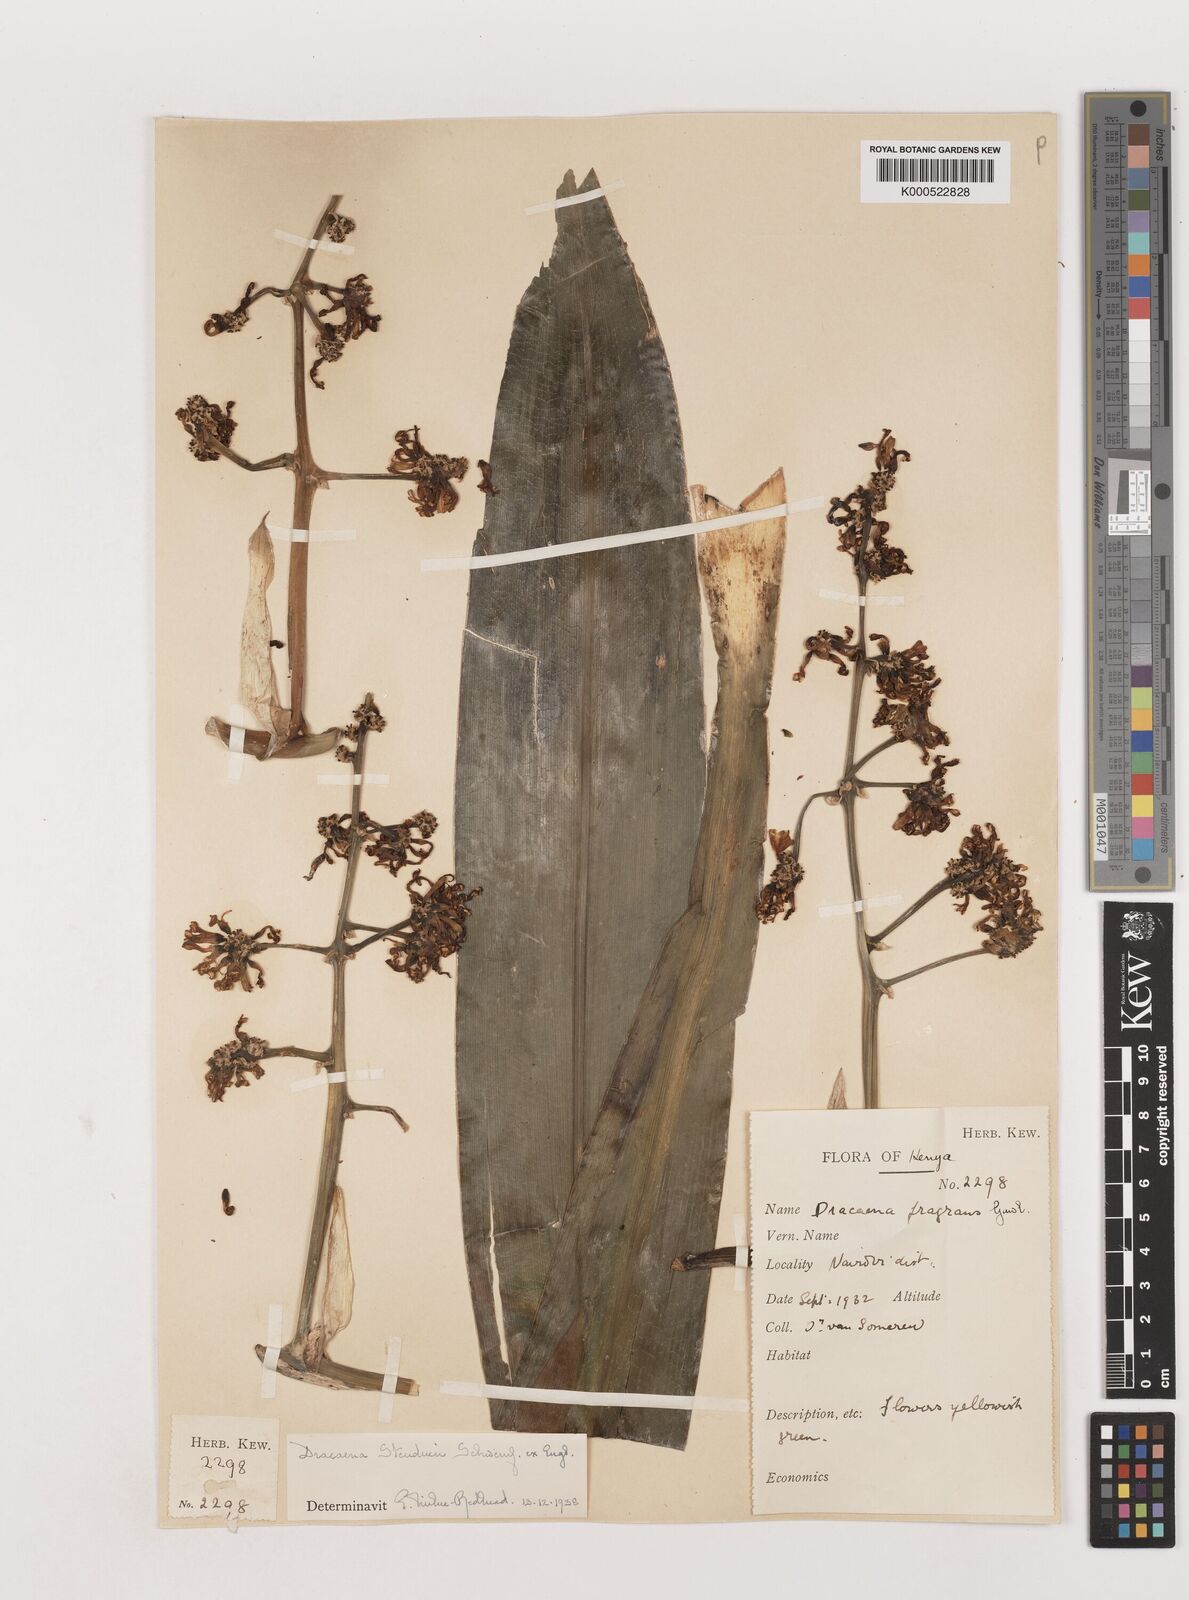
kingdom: Plantae
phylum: Tracheophyta
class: Liliopsida
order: Asparagales
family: Asparagaceae
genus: Dracaena
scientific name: Dracaena steudneri
